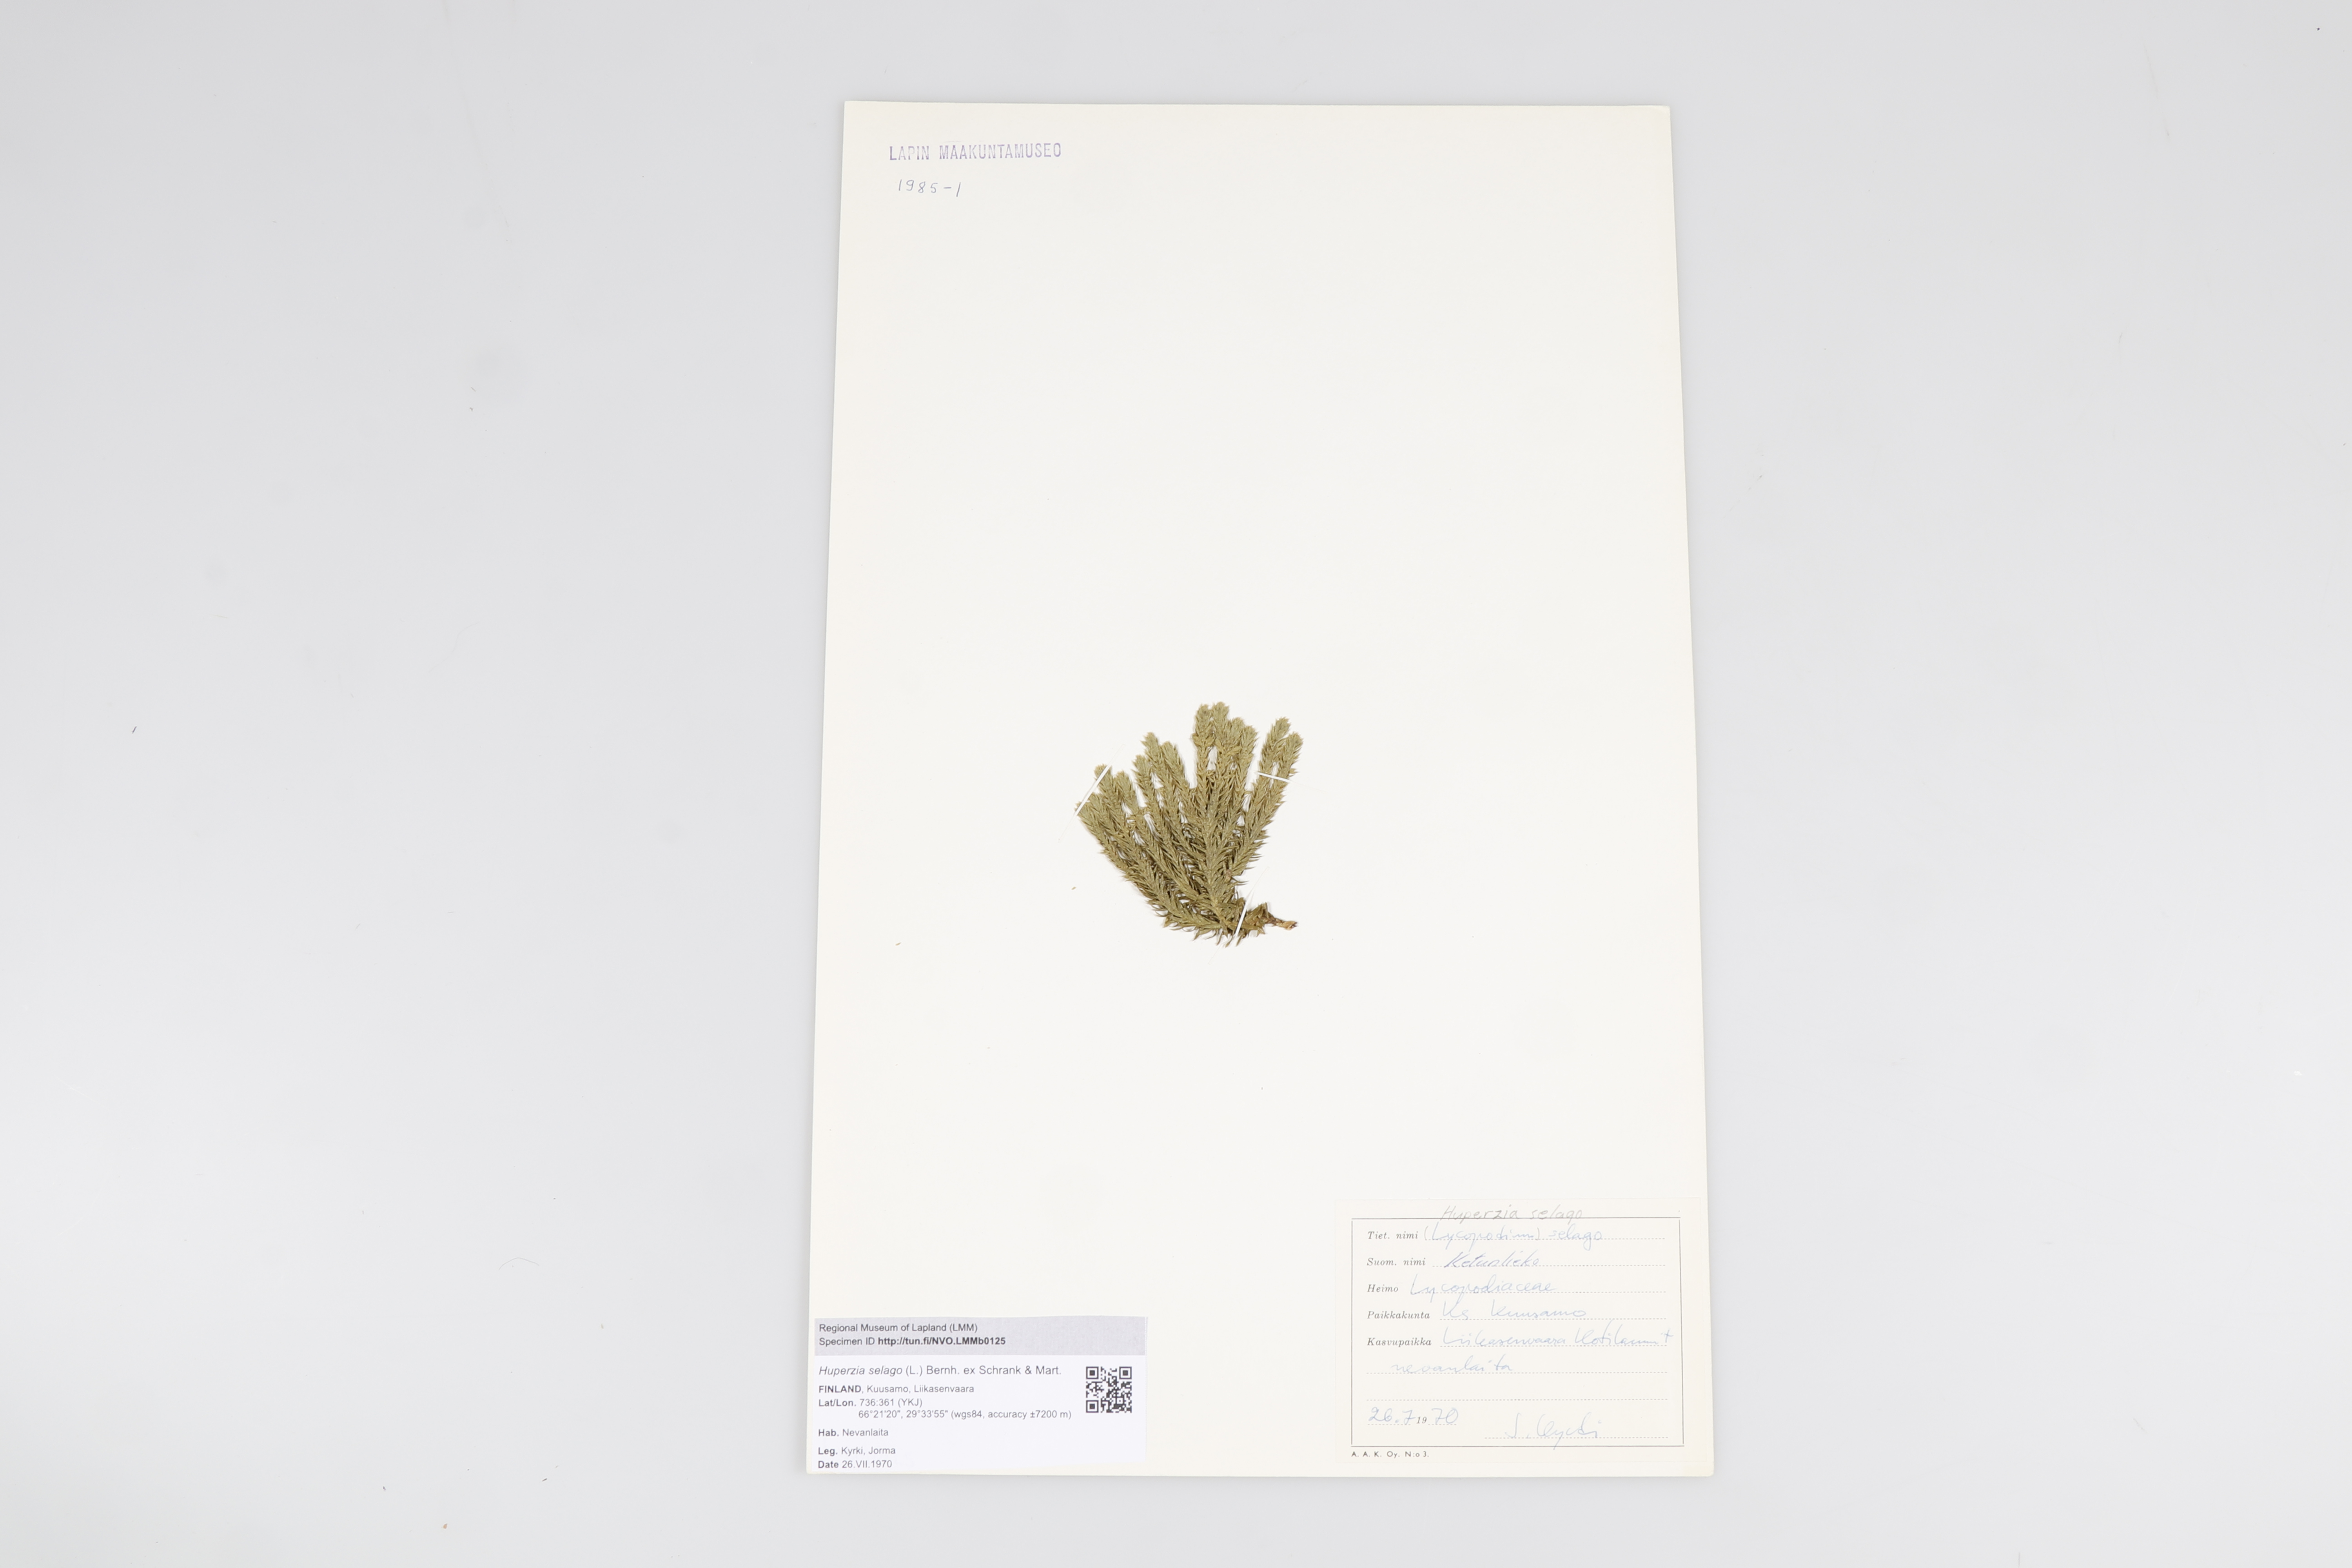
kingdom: Plantae
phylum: Tracheophyta
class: Lycopodiopsida
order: Lycopodiales
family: Lycopodiaceae
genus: Huperzia
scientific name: Huperzia
